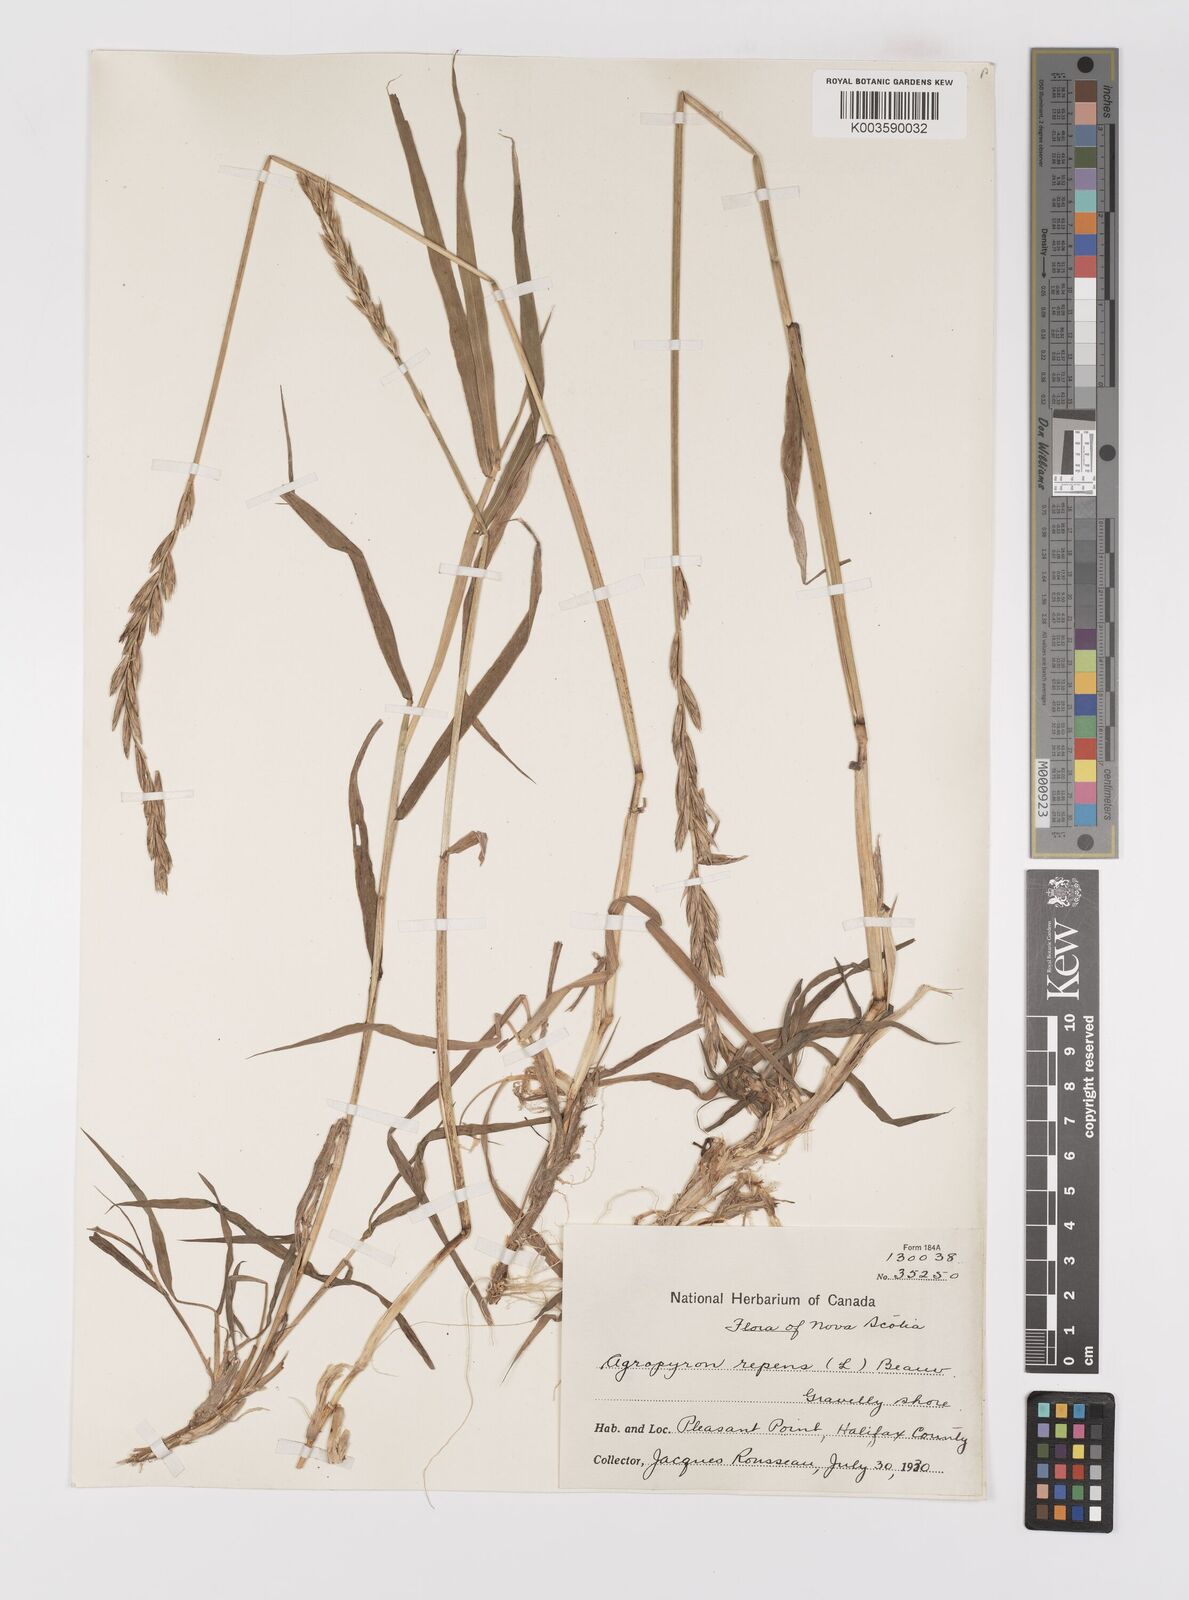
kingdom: Plantae
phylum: Tracheophyta
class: Liliopsida
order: Poales
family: Poaceae
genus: Elymus
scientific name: Elymus repens
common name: Quackgrass
